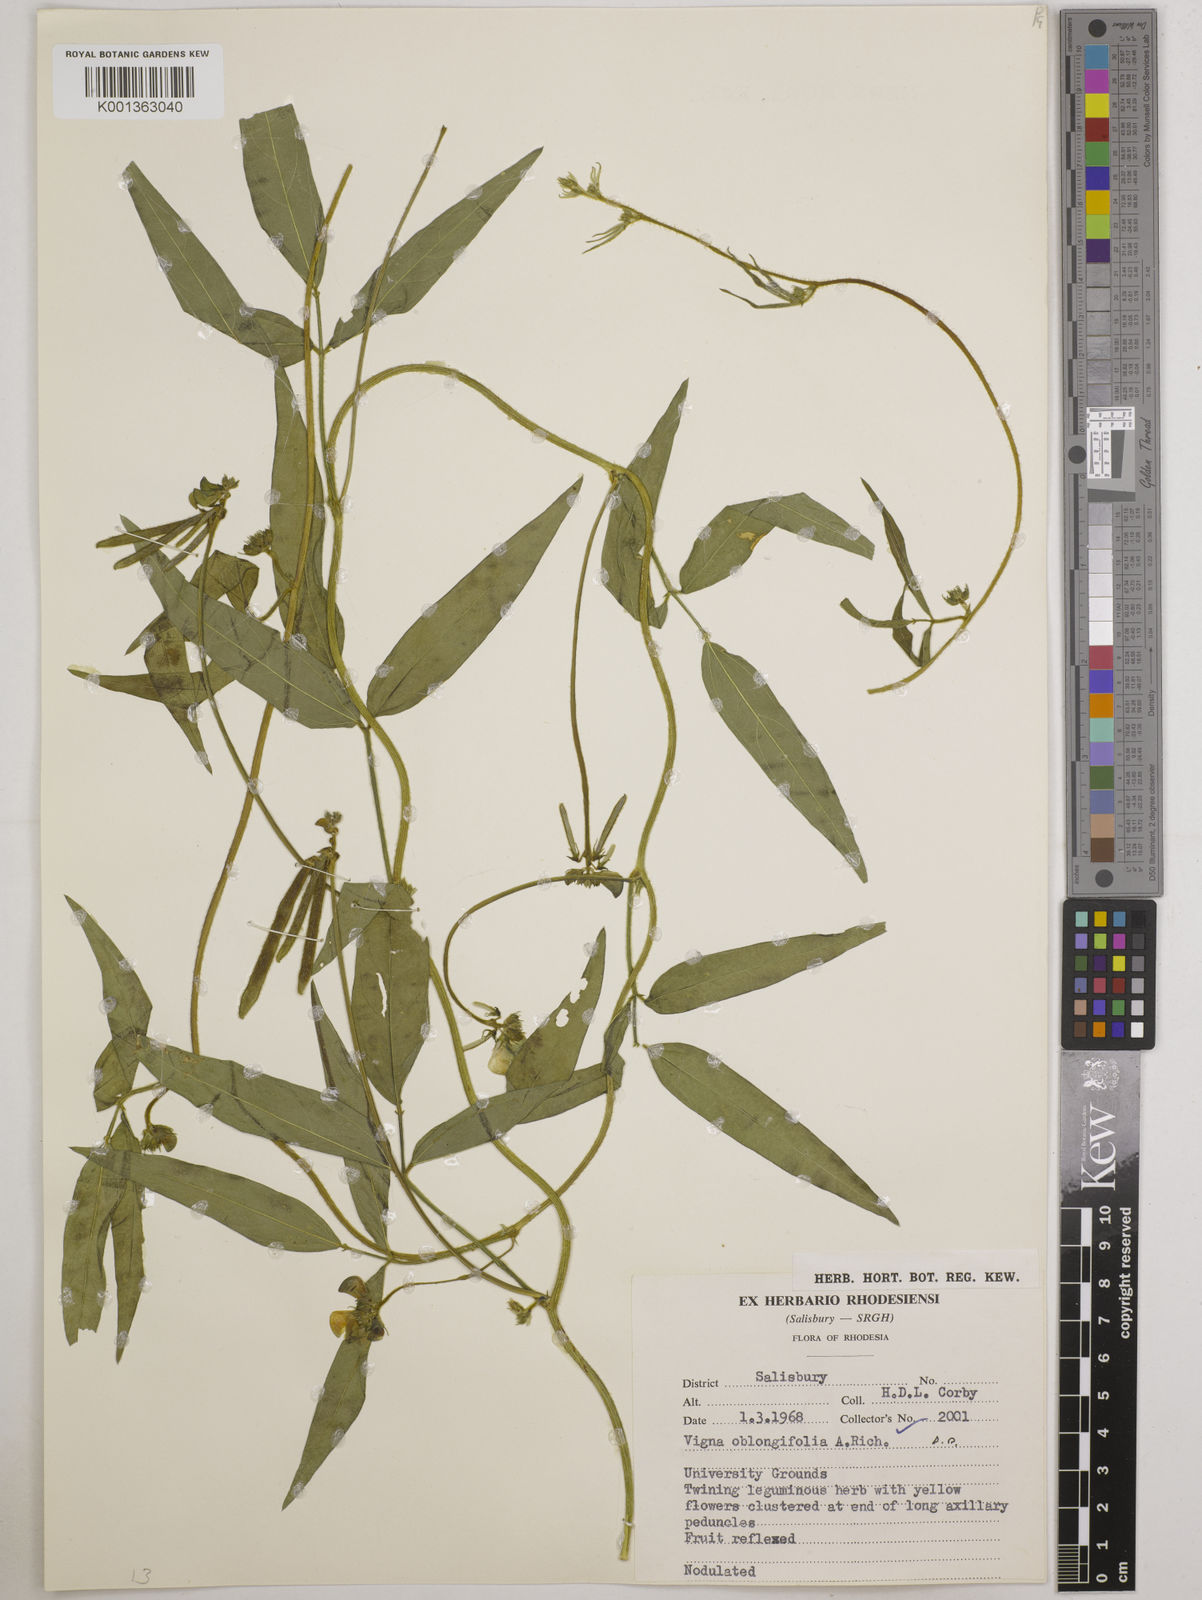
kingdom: Plantae
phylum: Tracheophyta
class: Magnoliopsida
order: Fabales
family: Fabaceae
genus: Vigna
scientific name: Vigna oblongifolia
